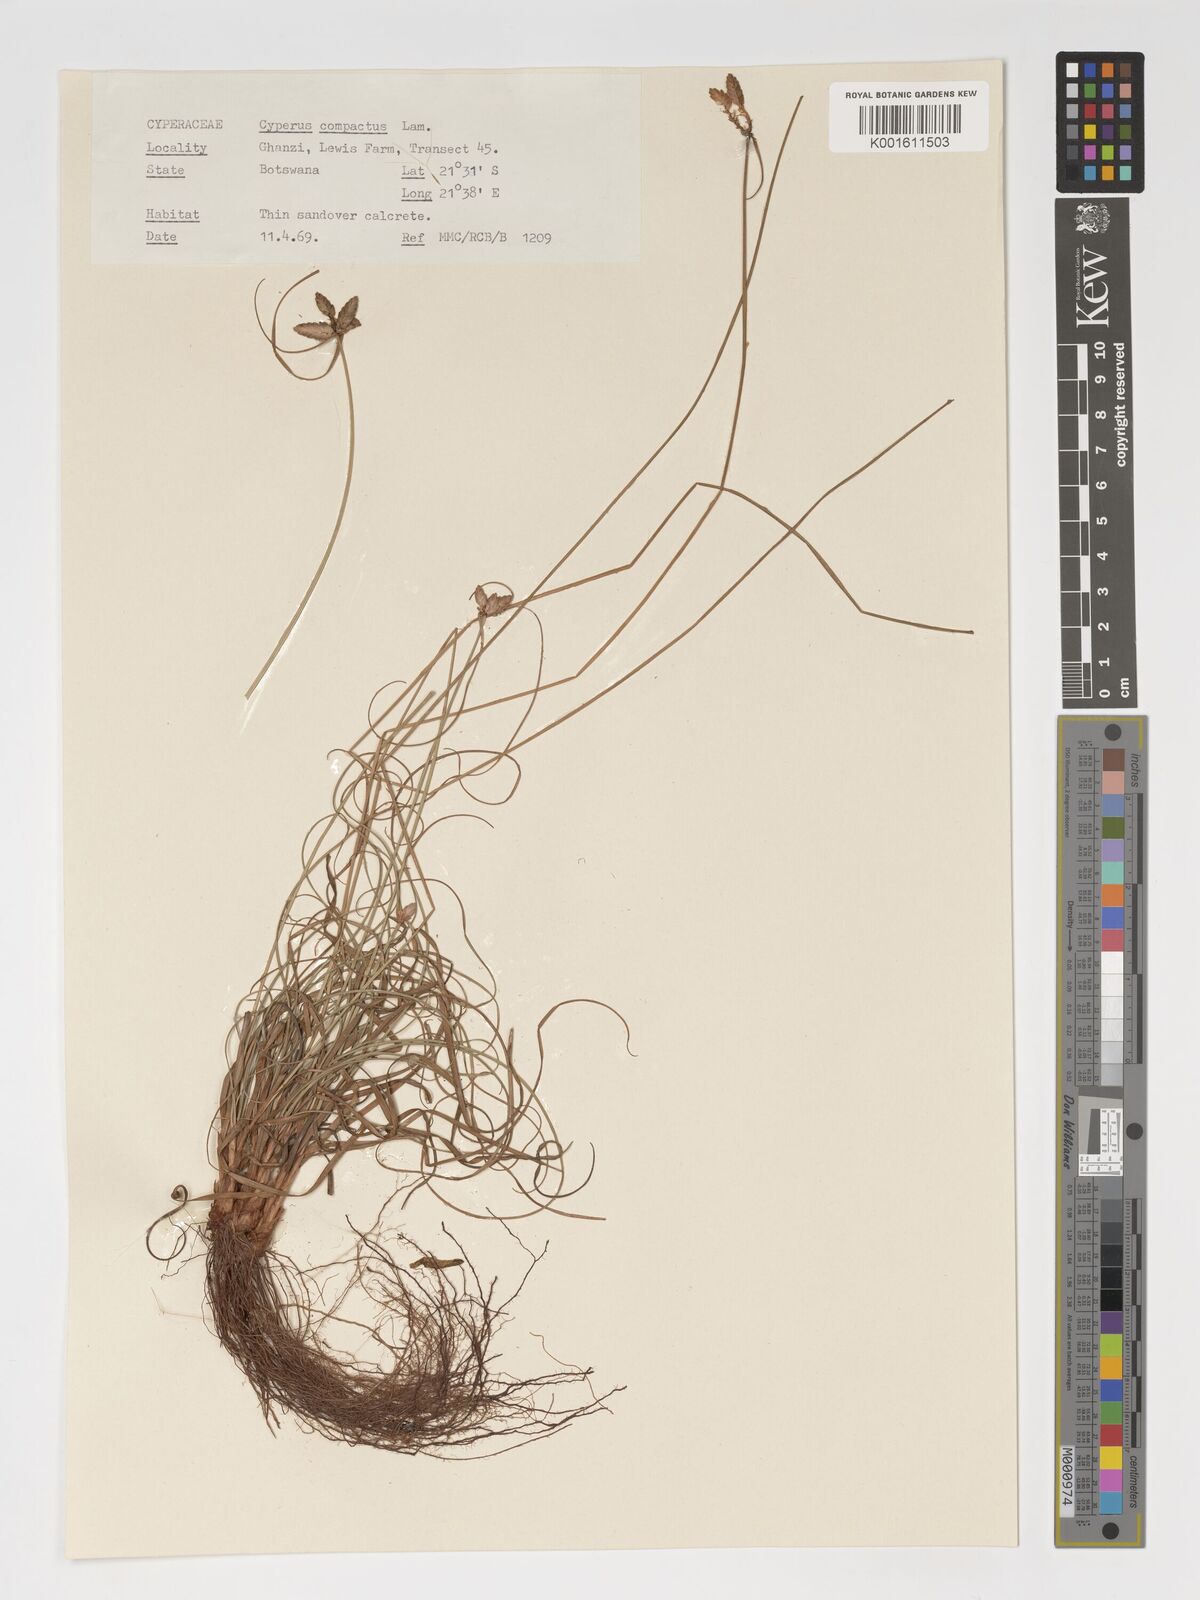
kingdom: Plantae
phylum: Tracheophyta
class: Liliopsida
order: Poales
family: Cyperaceae
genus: Cyperus
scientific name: Cyperus niveus
